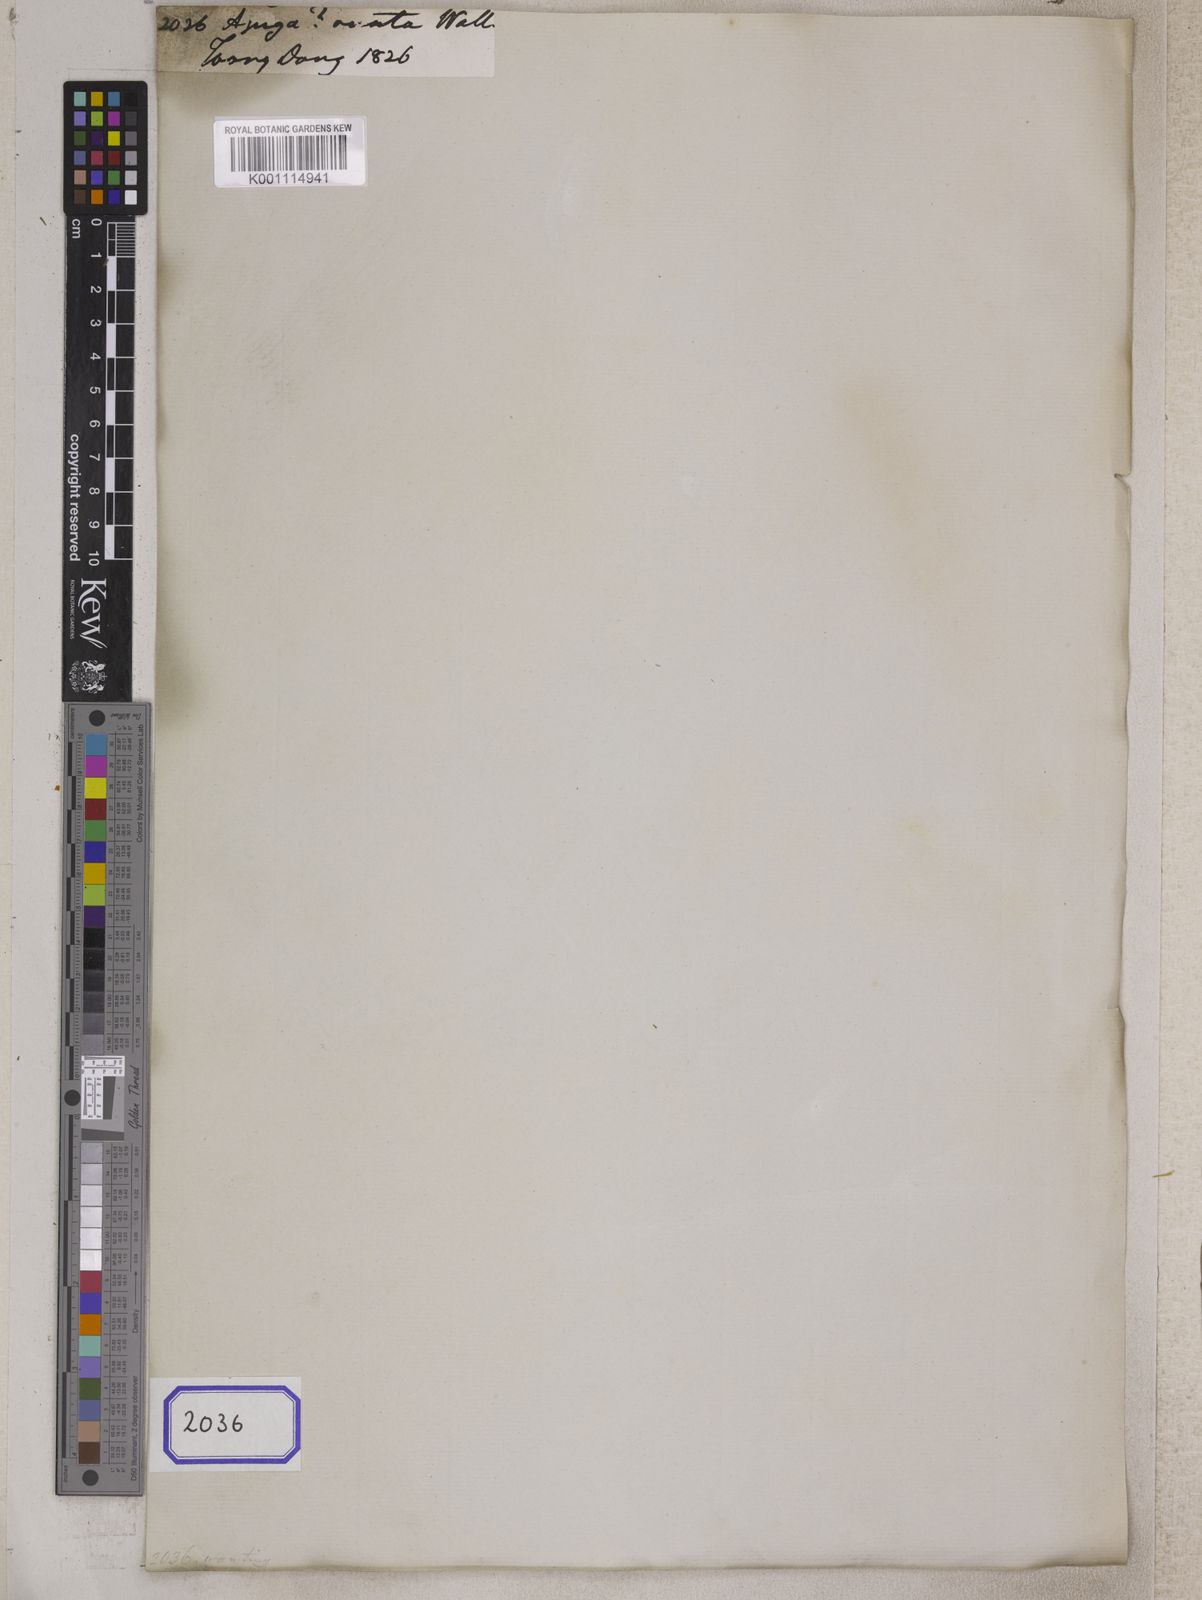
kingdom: Plantae
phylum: Tracheophyta
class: Magnoliopsida
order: Lamiales
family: Lamiaceae
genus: Ajuga
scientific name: Ajuga
